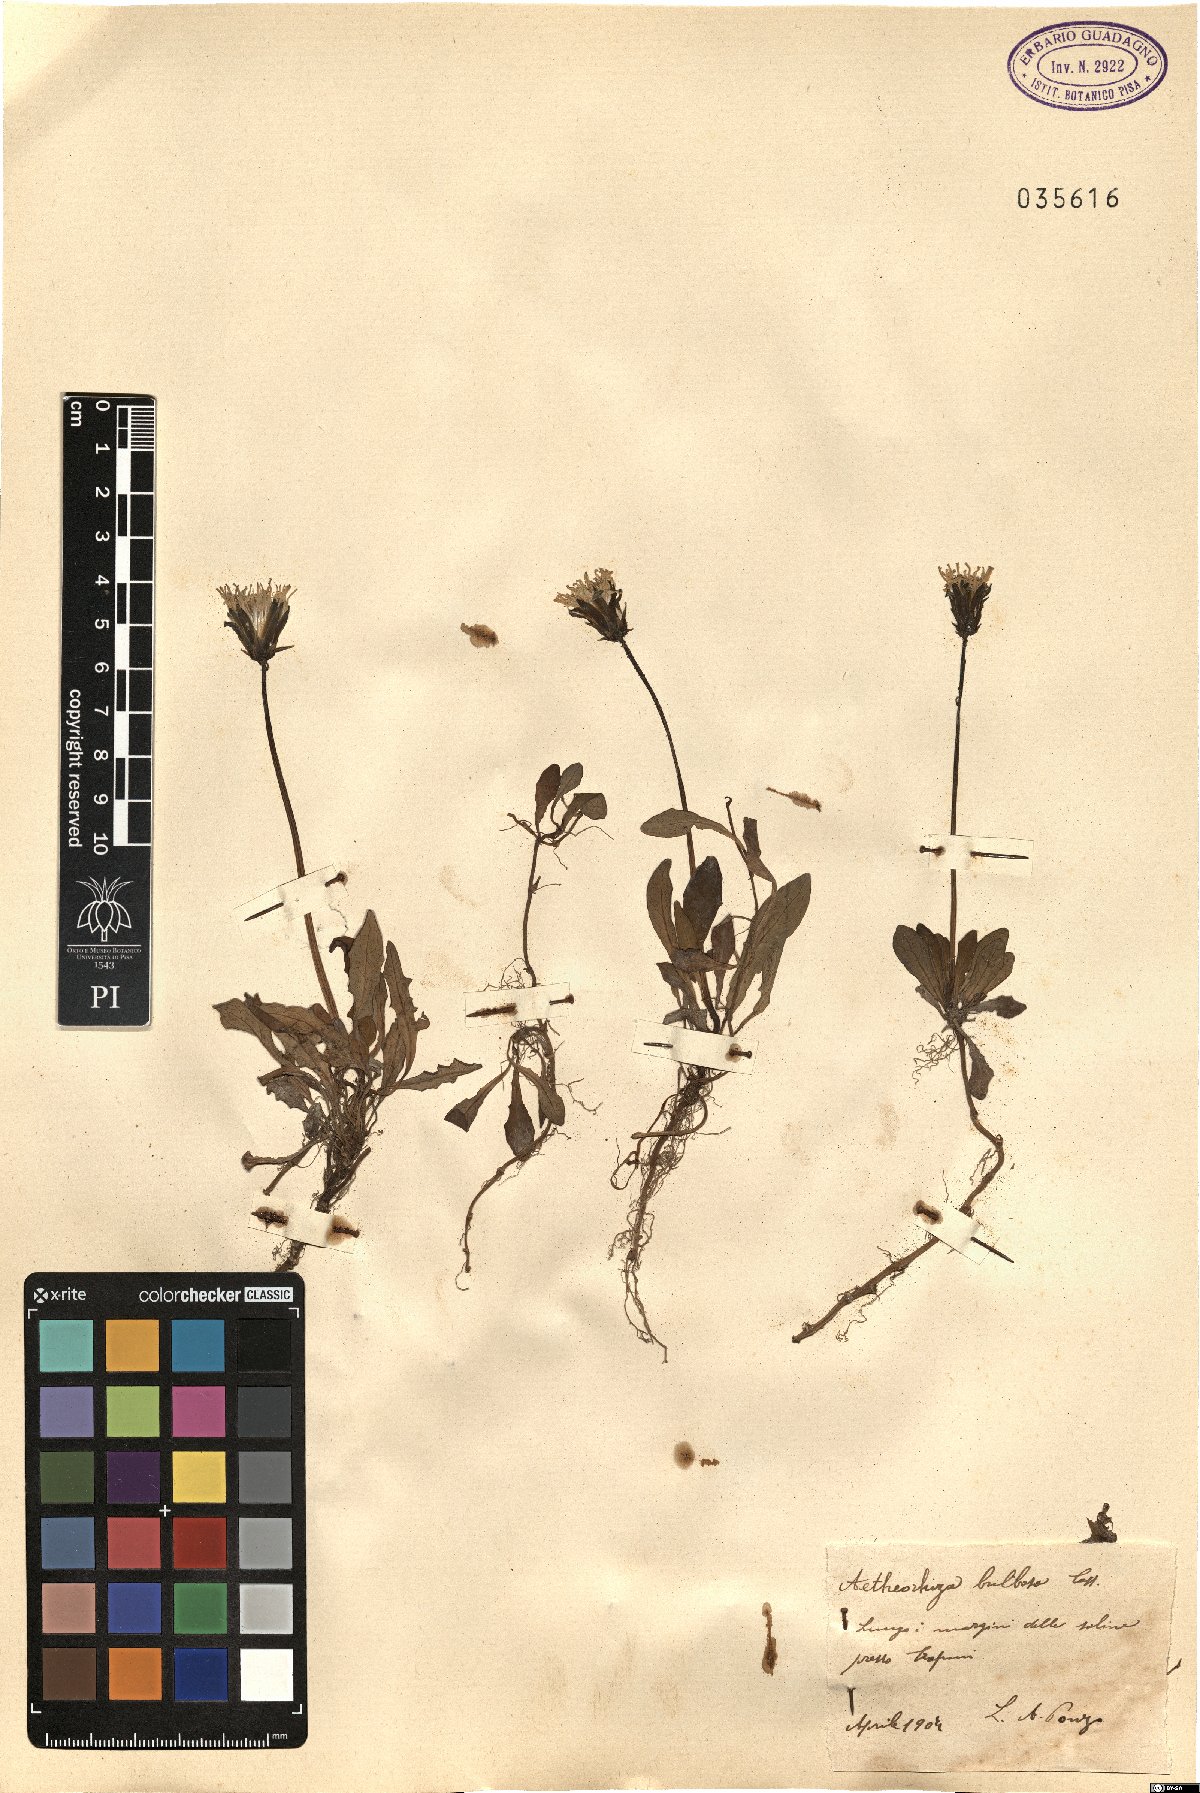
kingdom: Plantae
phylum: Tracheophyta
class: Magnoliopsida
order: Asterales
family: Asteraceae
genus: Aetheorhiza
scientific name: Aetheorhiza bulbosa
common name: Tuberous hawk's-beard
